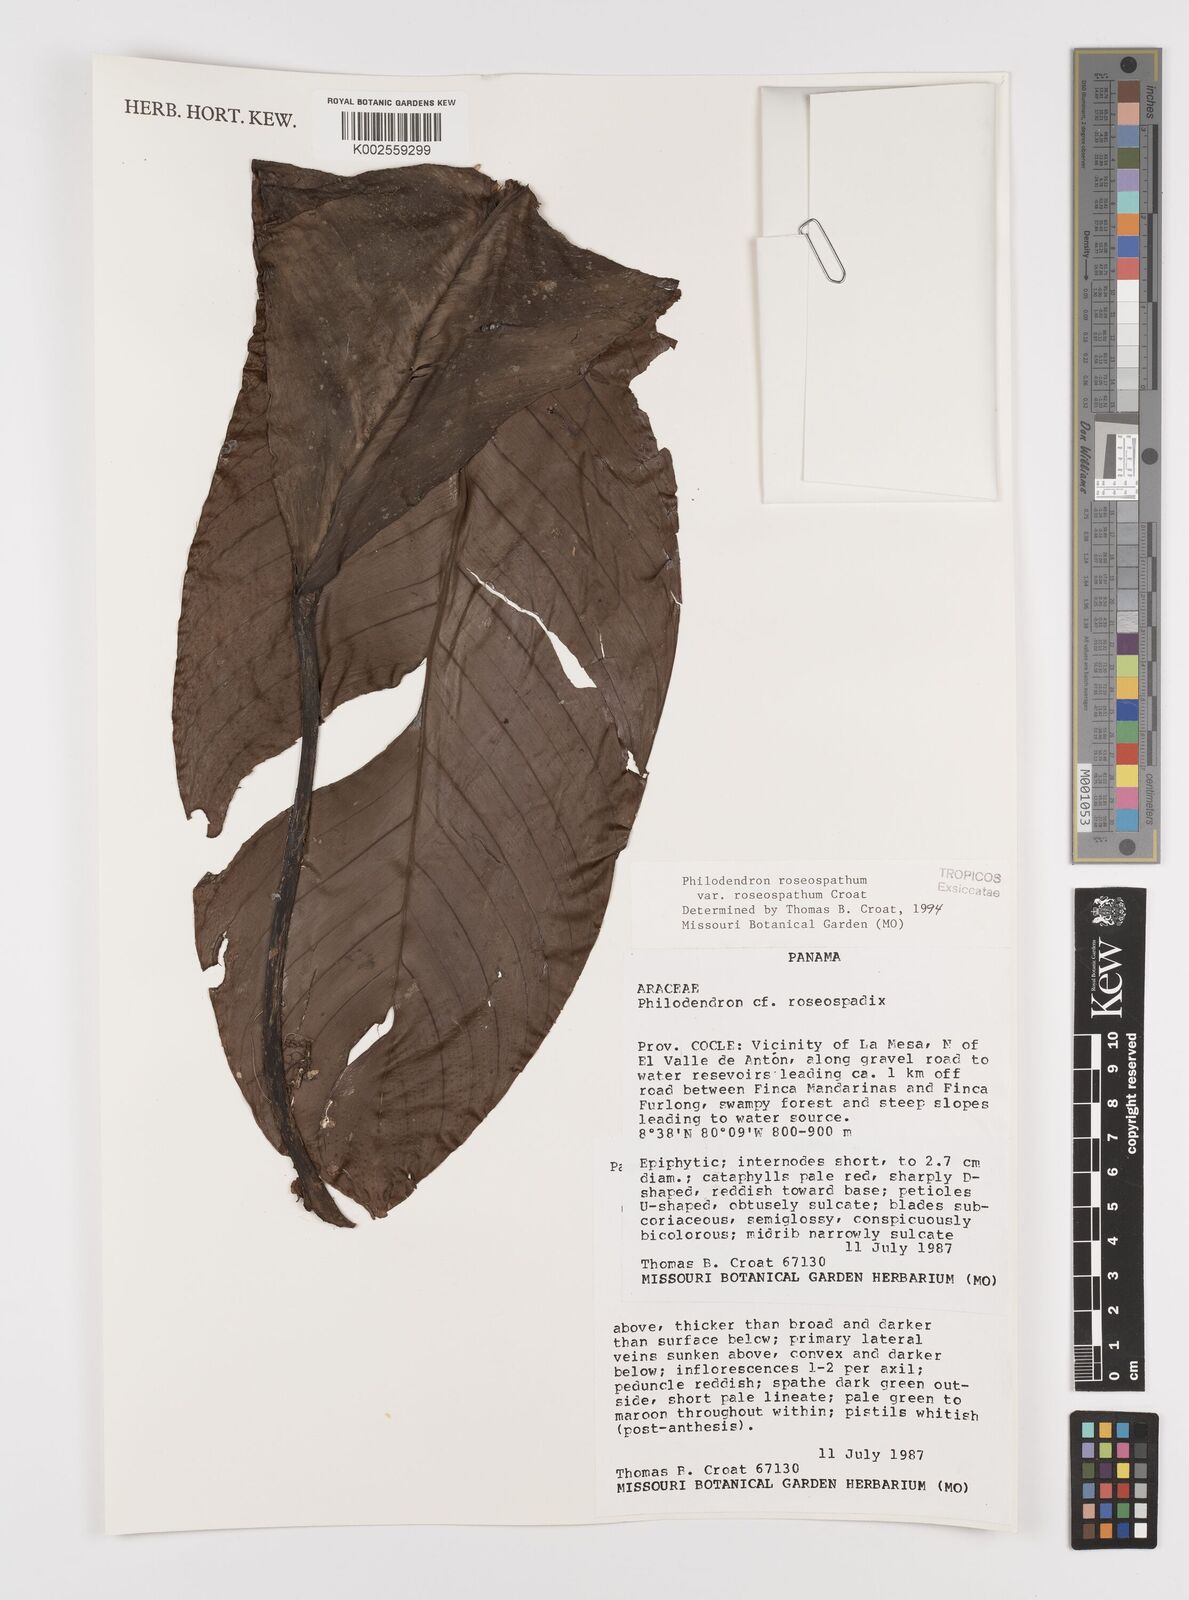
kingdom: Plantae
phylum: Tracheophyta
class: Liliopsida
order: Alismatales
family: Araceae
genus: Philodendron
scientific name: Philodendron roseospathum
